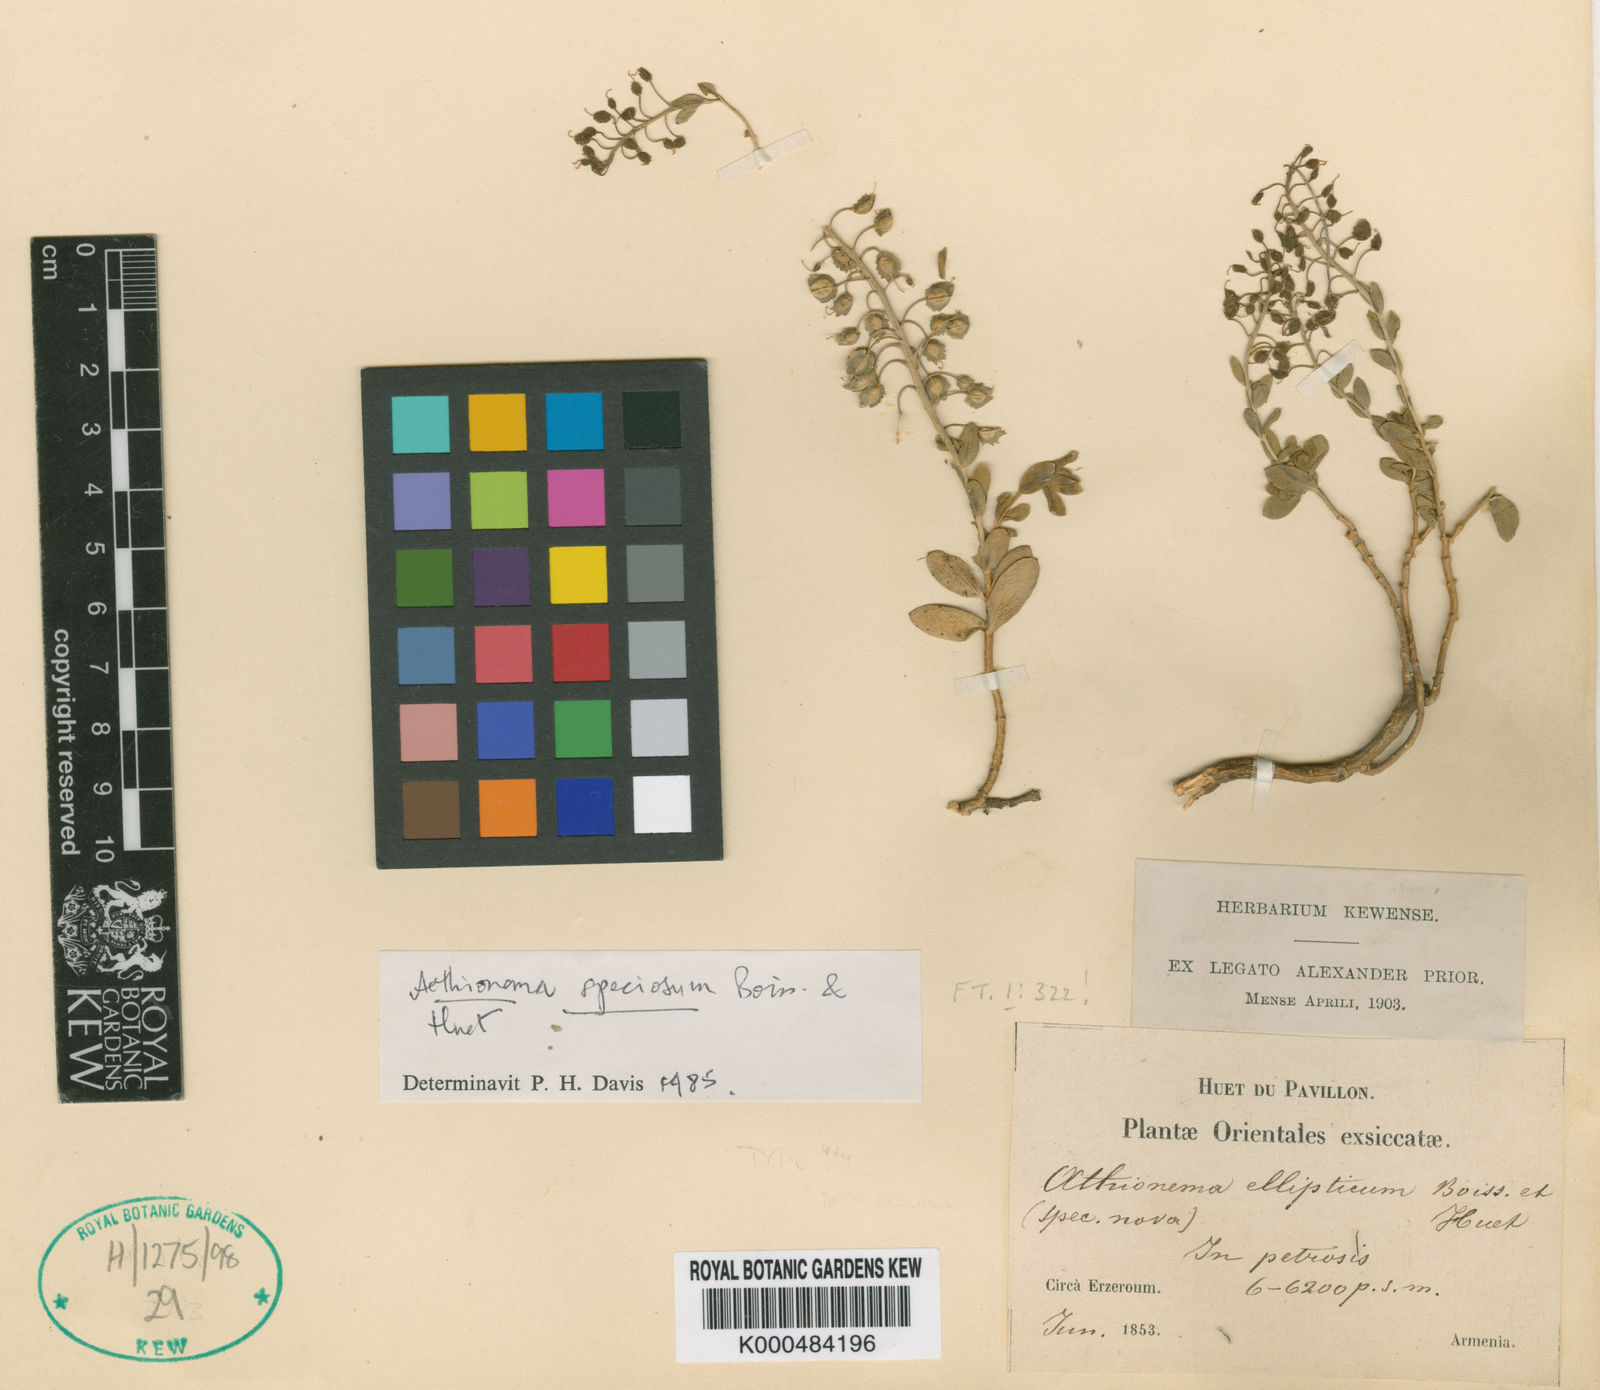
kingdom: Plantae
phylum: Tracheophyta
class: Magnoliopsida
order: Brassicales
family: Brassicaceae
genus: Aethionema
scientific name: Aethionema speciosum
